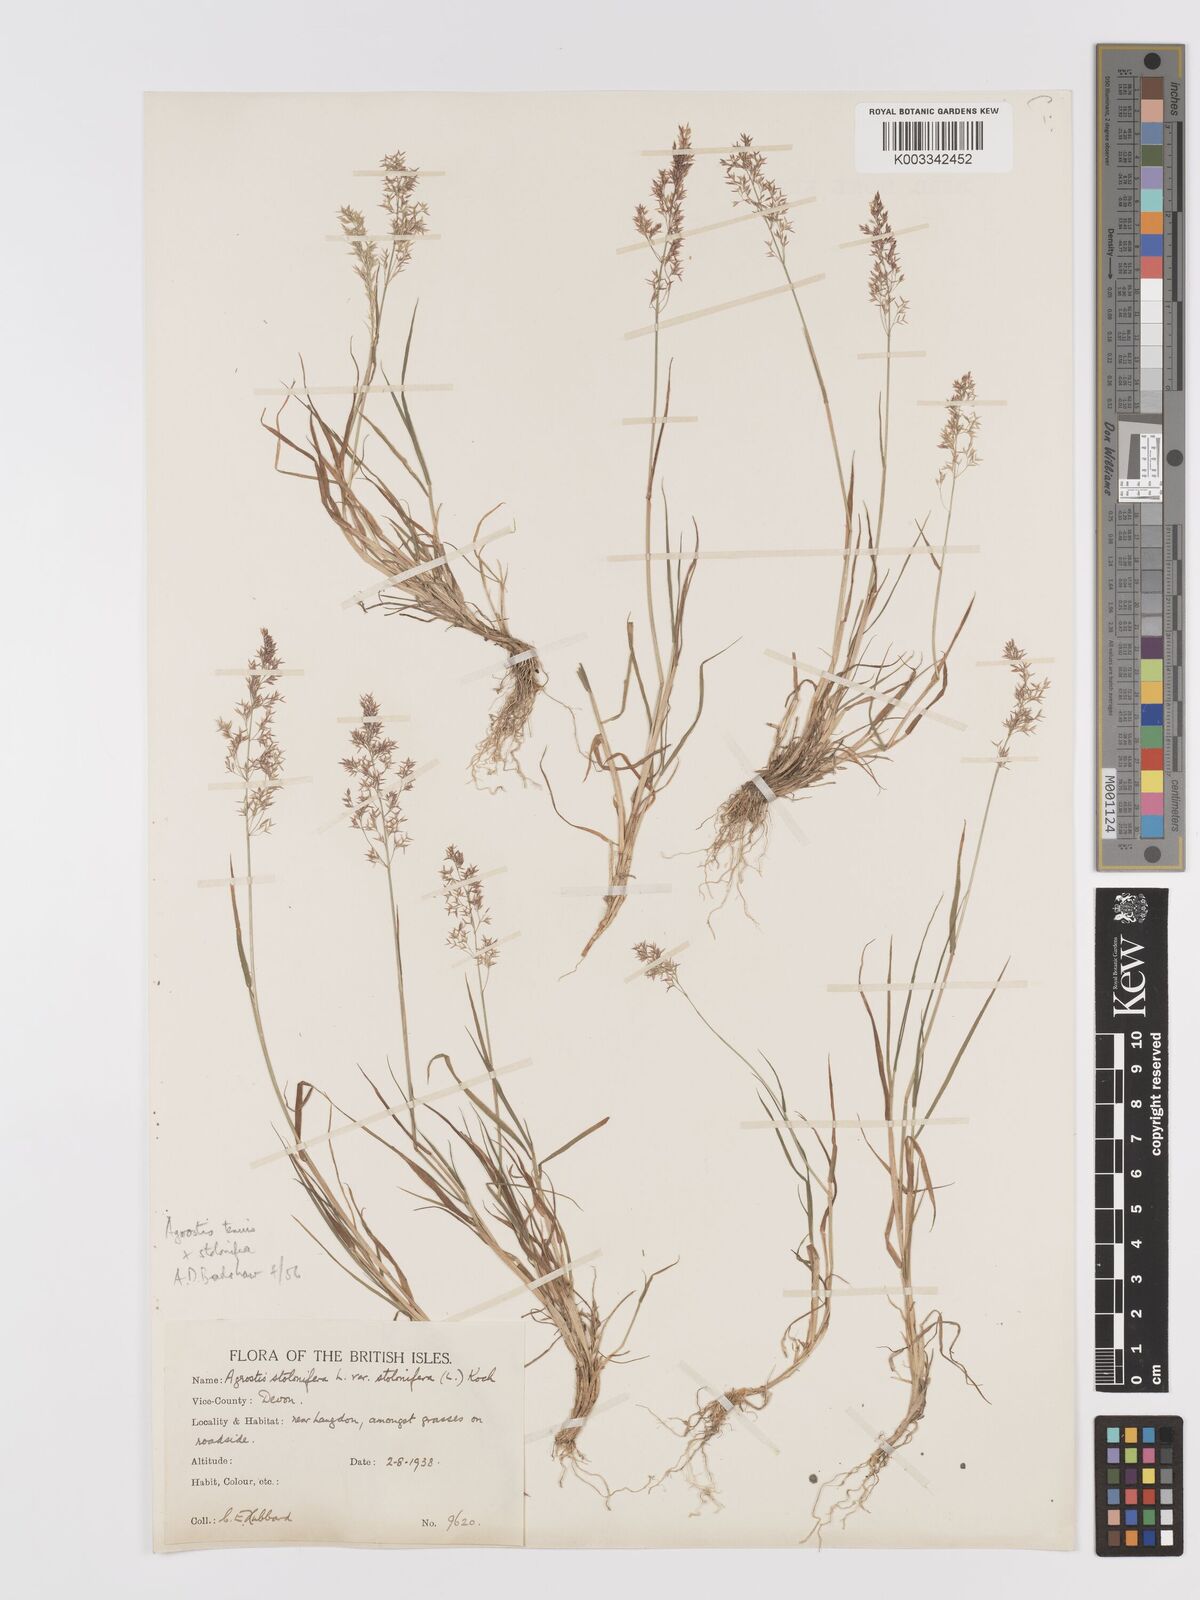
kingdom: Plantae
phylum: Tracheophyta
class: Liliopsida
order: Poales
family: Poaceae
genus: Agrostis
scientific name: Agrostis capillaris
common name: Colonial bentgrass
